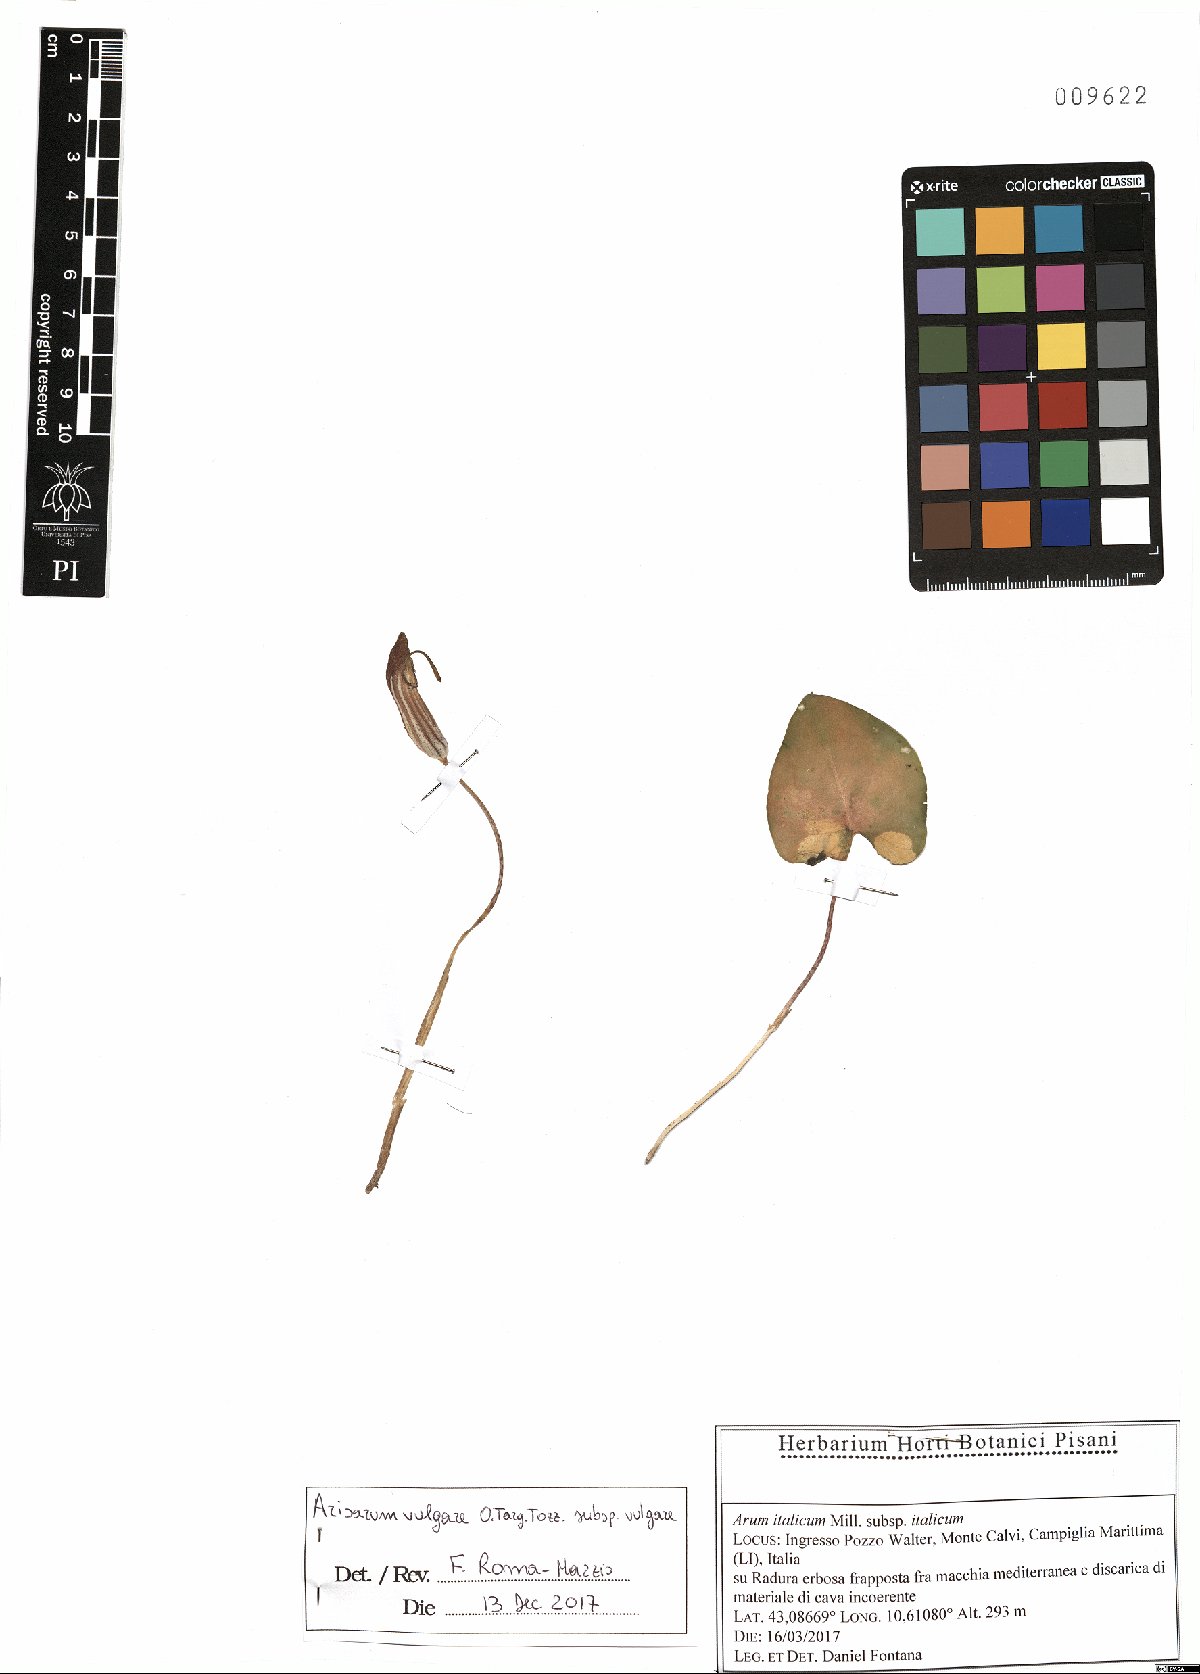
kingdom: Plantae
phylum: Tracheophyta
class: Liliopsida
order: Alismatales
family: Araceae
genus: Arisarum
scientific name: Arisarum vulgare
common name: Common arisarum
